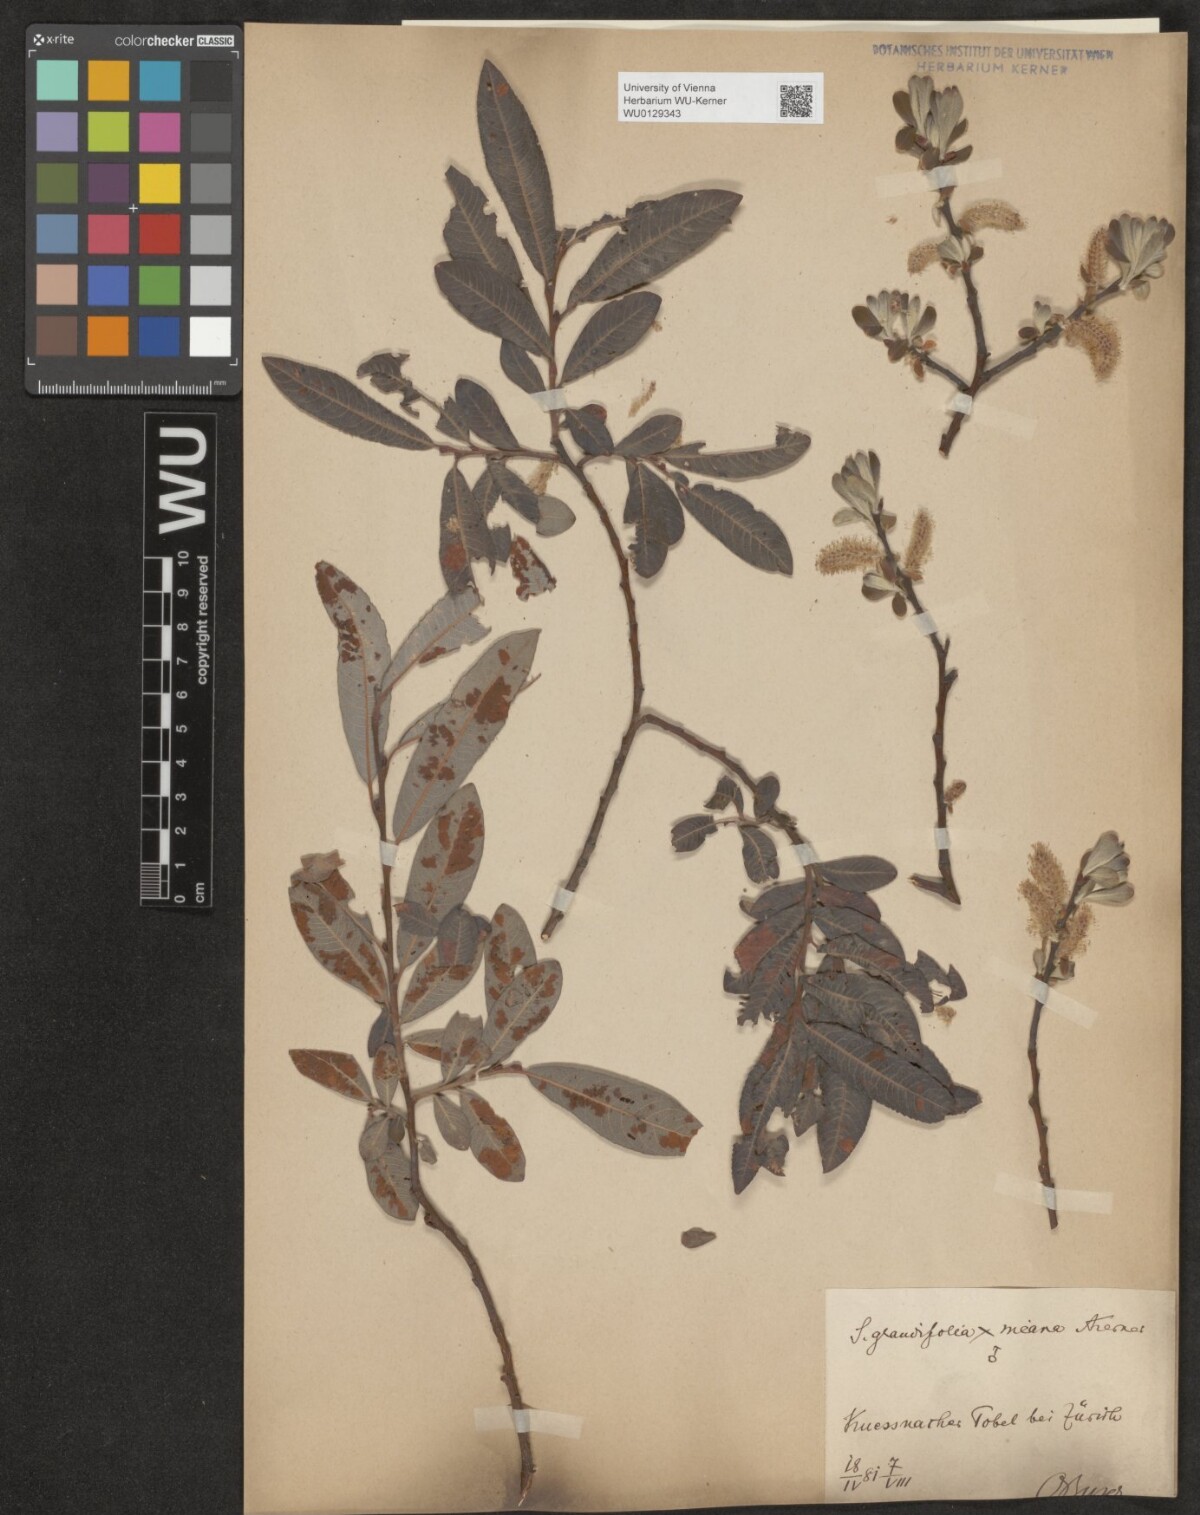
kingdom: Plantae
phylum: Tracheophyta
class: Magnoliopsida
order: Malpighiales
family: Salicaceae
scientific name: Salicaceae
